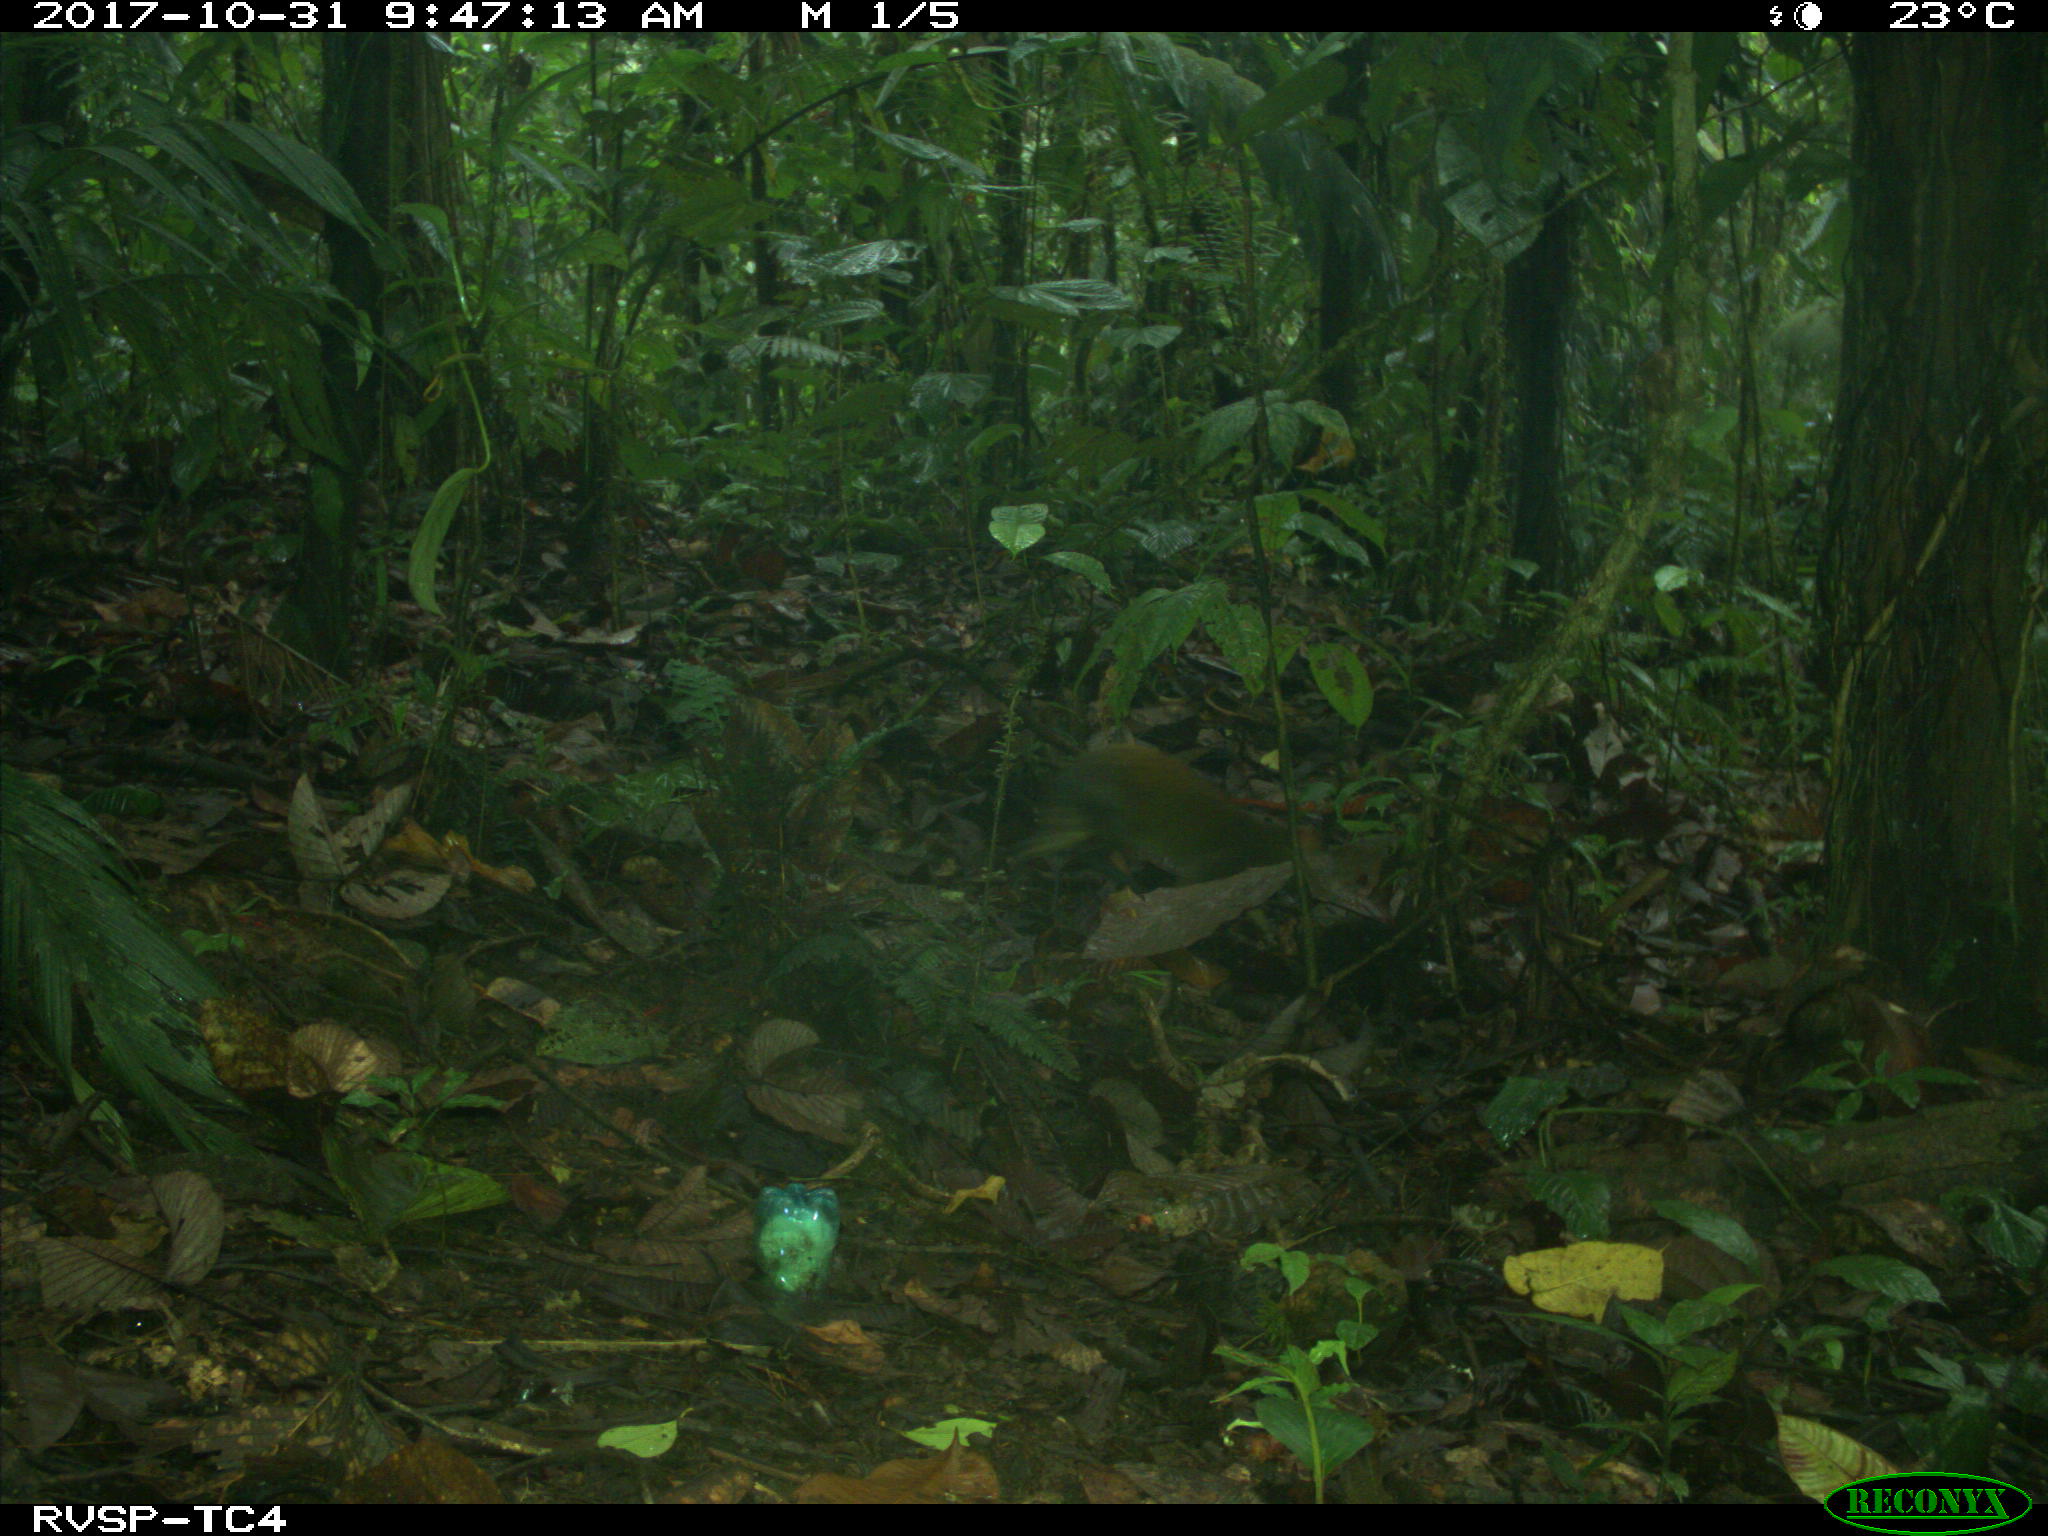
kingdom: Animalia
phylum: Chordata
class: Mammalia
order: Rodentia
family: Dasyproctidae
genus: Dasyprocta
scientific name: Dasyprocta punctata
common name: Central american agouti
